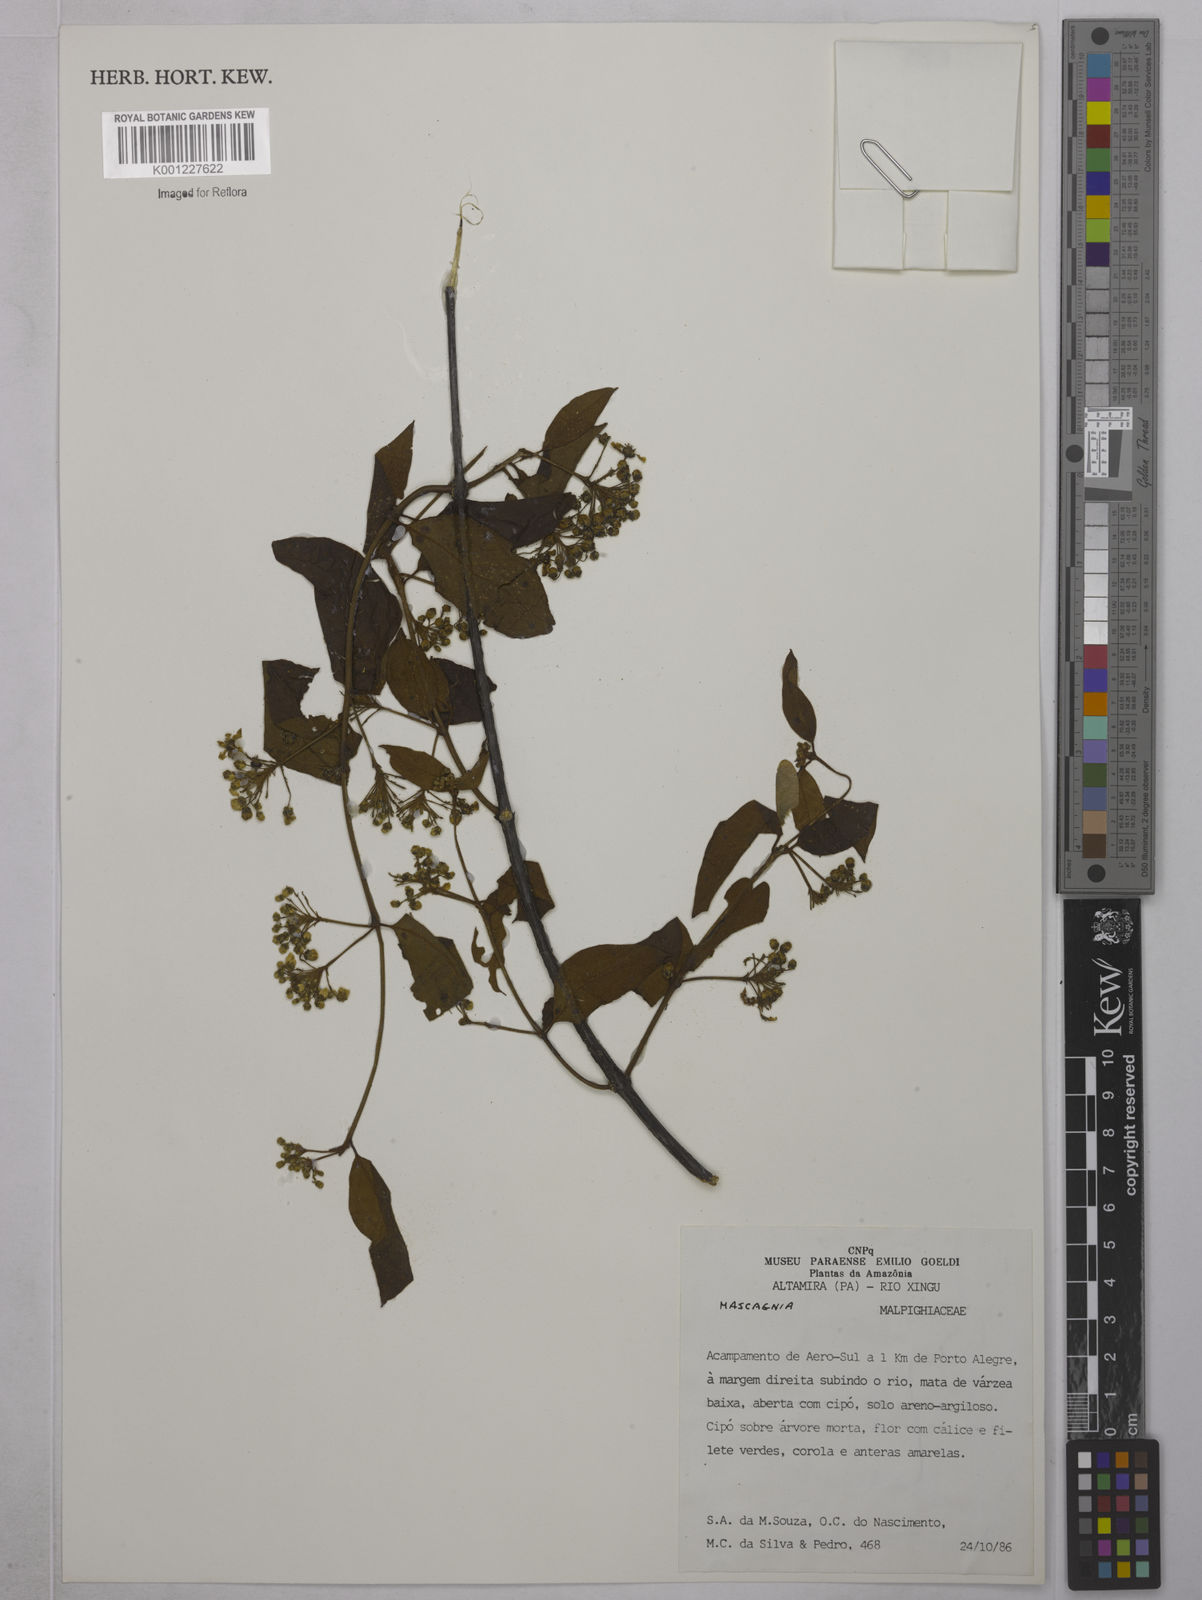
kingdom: Plantae
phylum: Tracheophyta
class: Magnoliopsida
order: Malpighiales
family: Malpighiaceae
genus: Mascagnia
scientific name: Mascagnia
